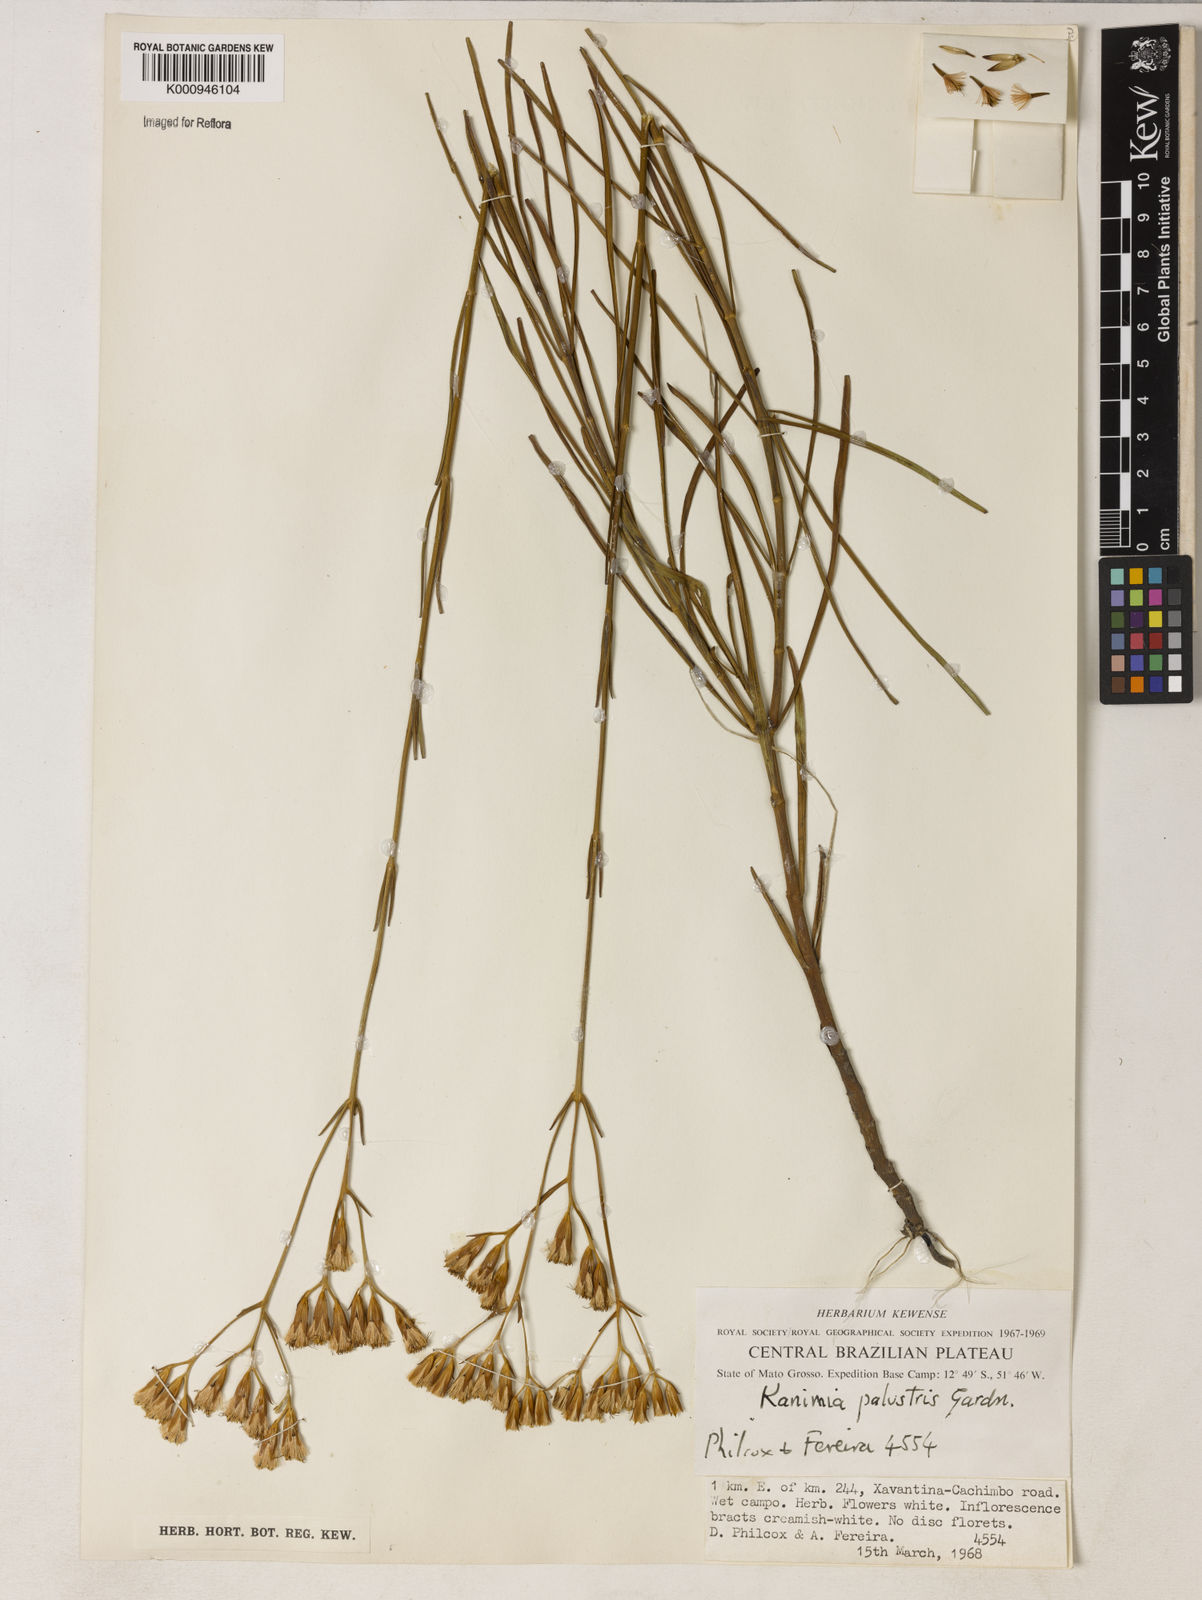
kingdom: Plantae
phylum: Tracheophyta
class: Magnoliopsida
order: Asterales
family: Asteraceae
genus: Mikania
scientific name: Mikania palustris
